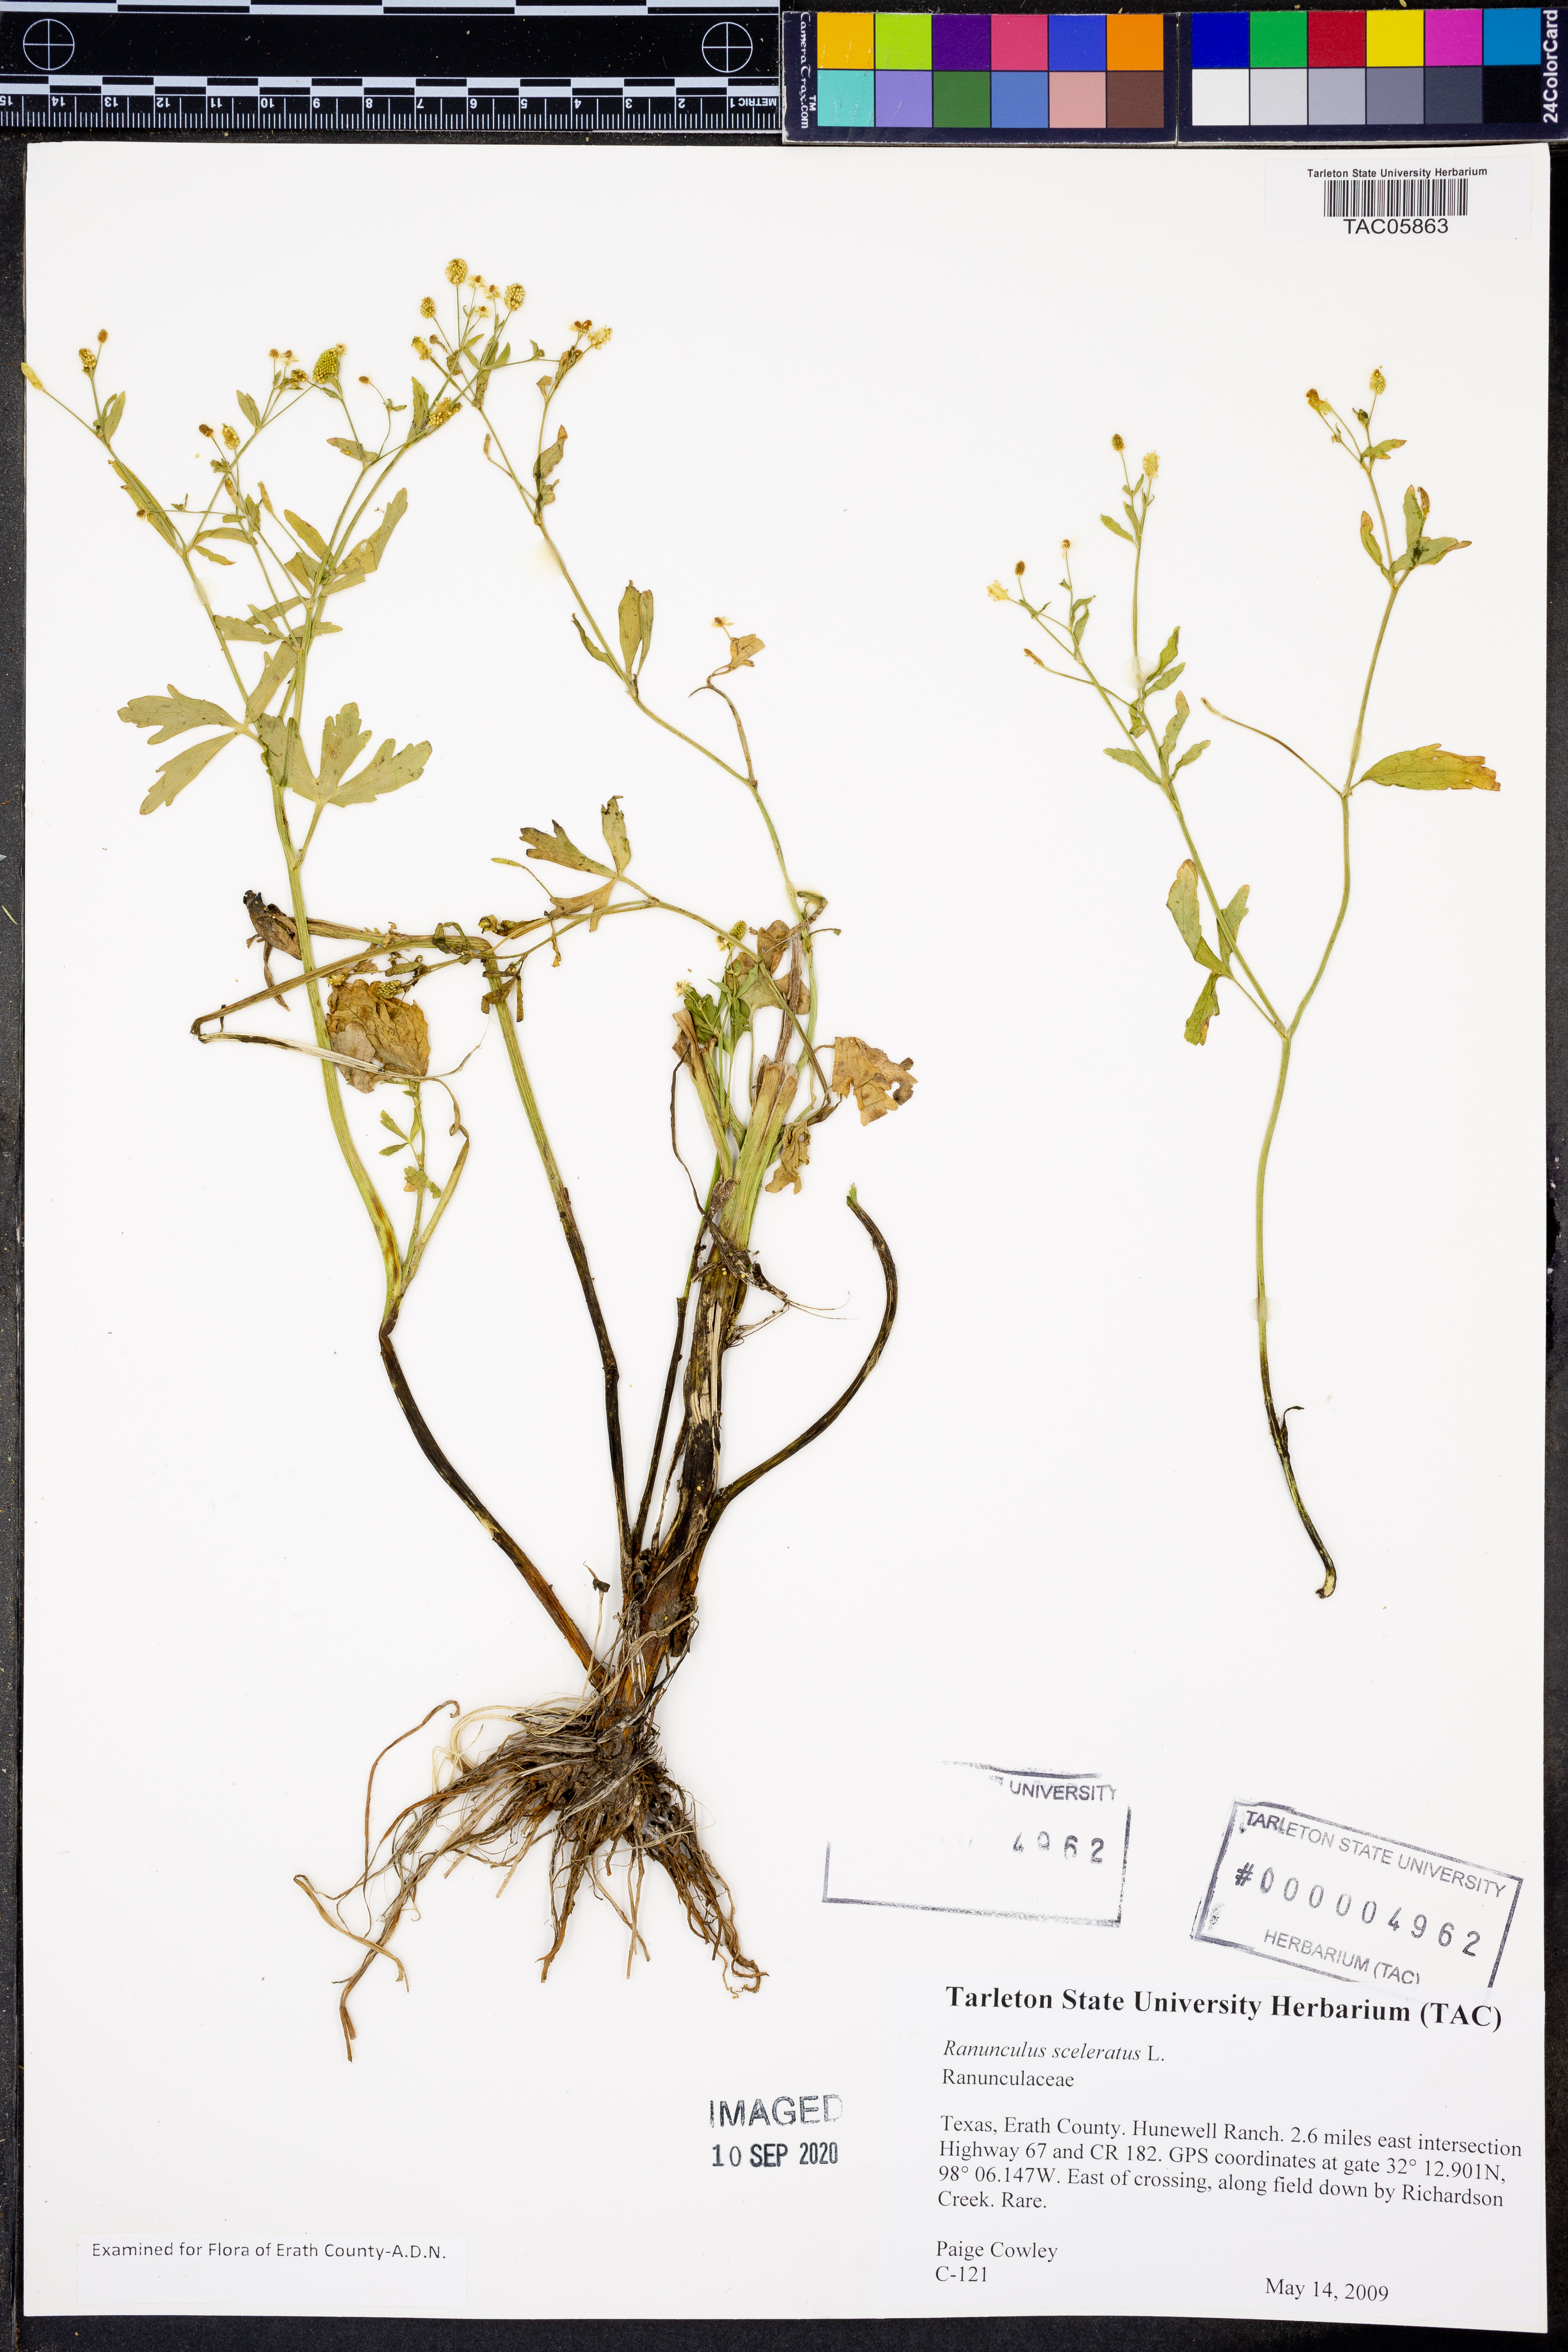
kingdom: Plantae
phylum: Tracheophyta
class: Magnoliopsida
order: Ranunculales
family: Ranunculaceae
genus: Ranunculus
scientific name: Ranunculus sceleratus
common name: Celery-leaved buttercup
